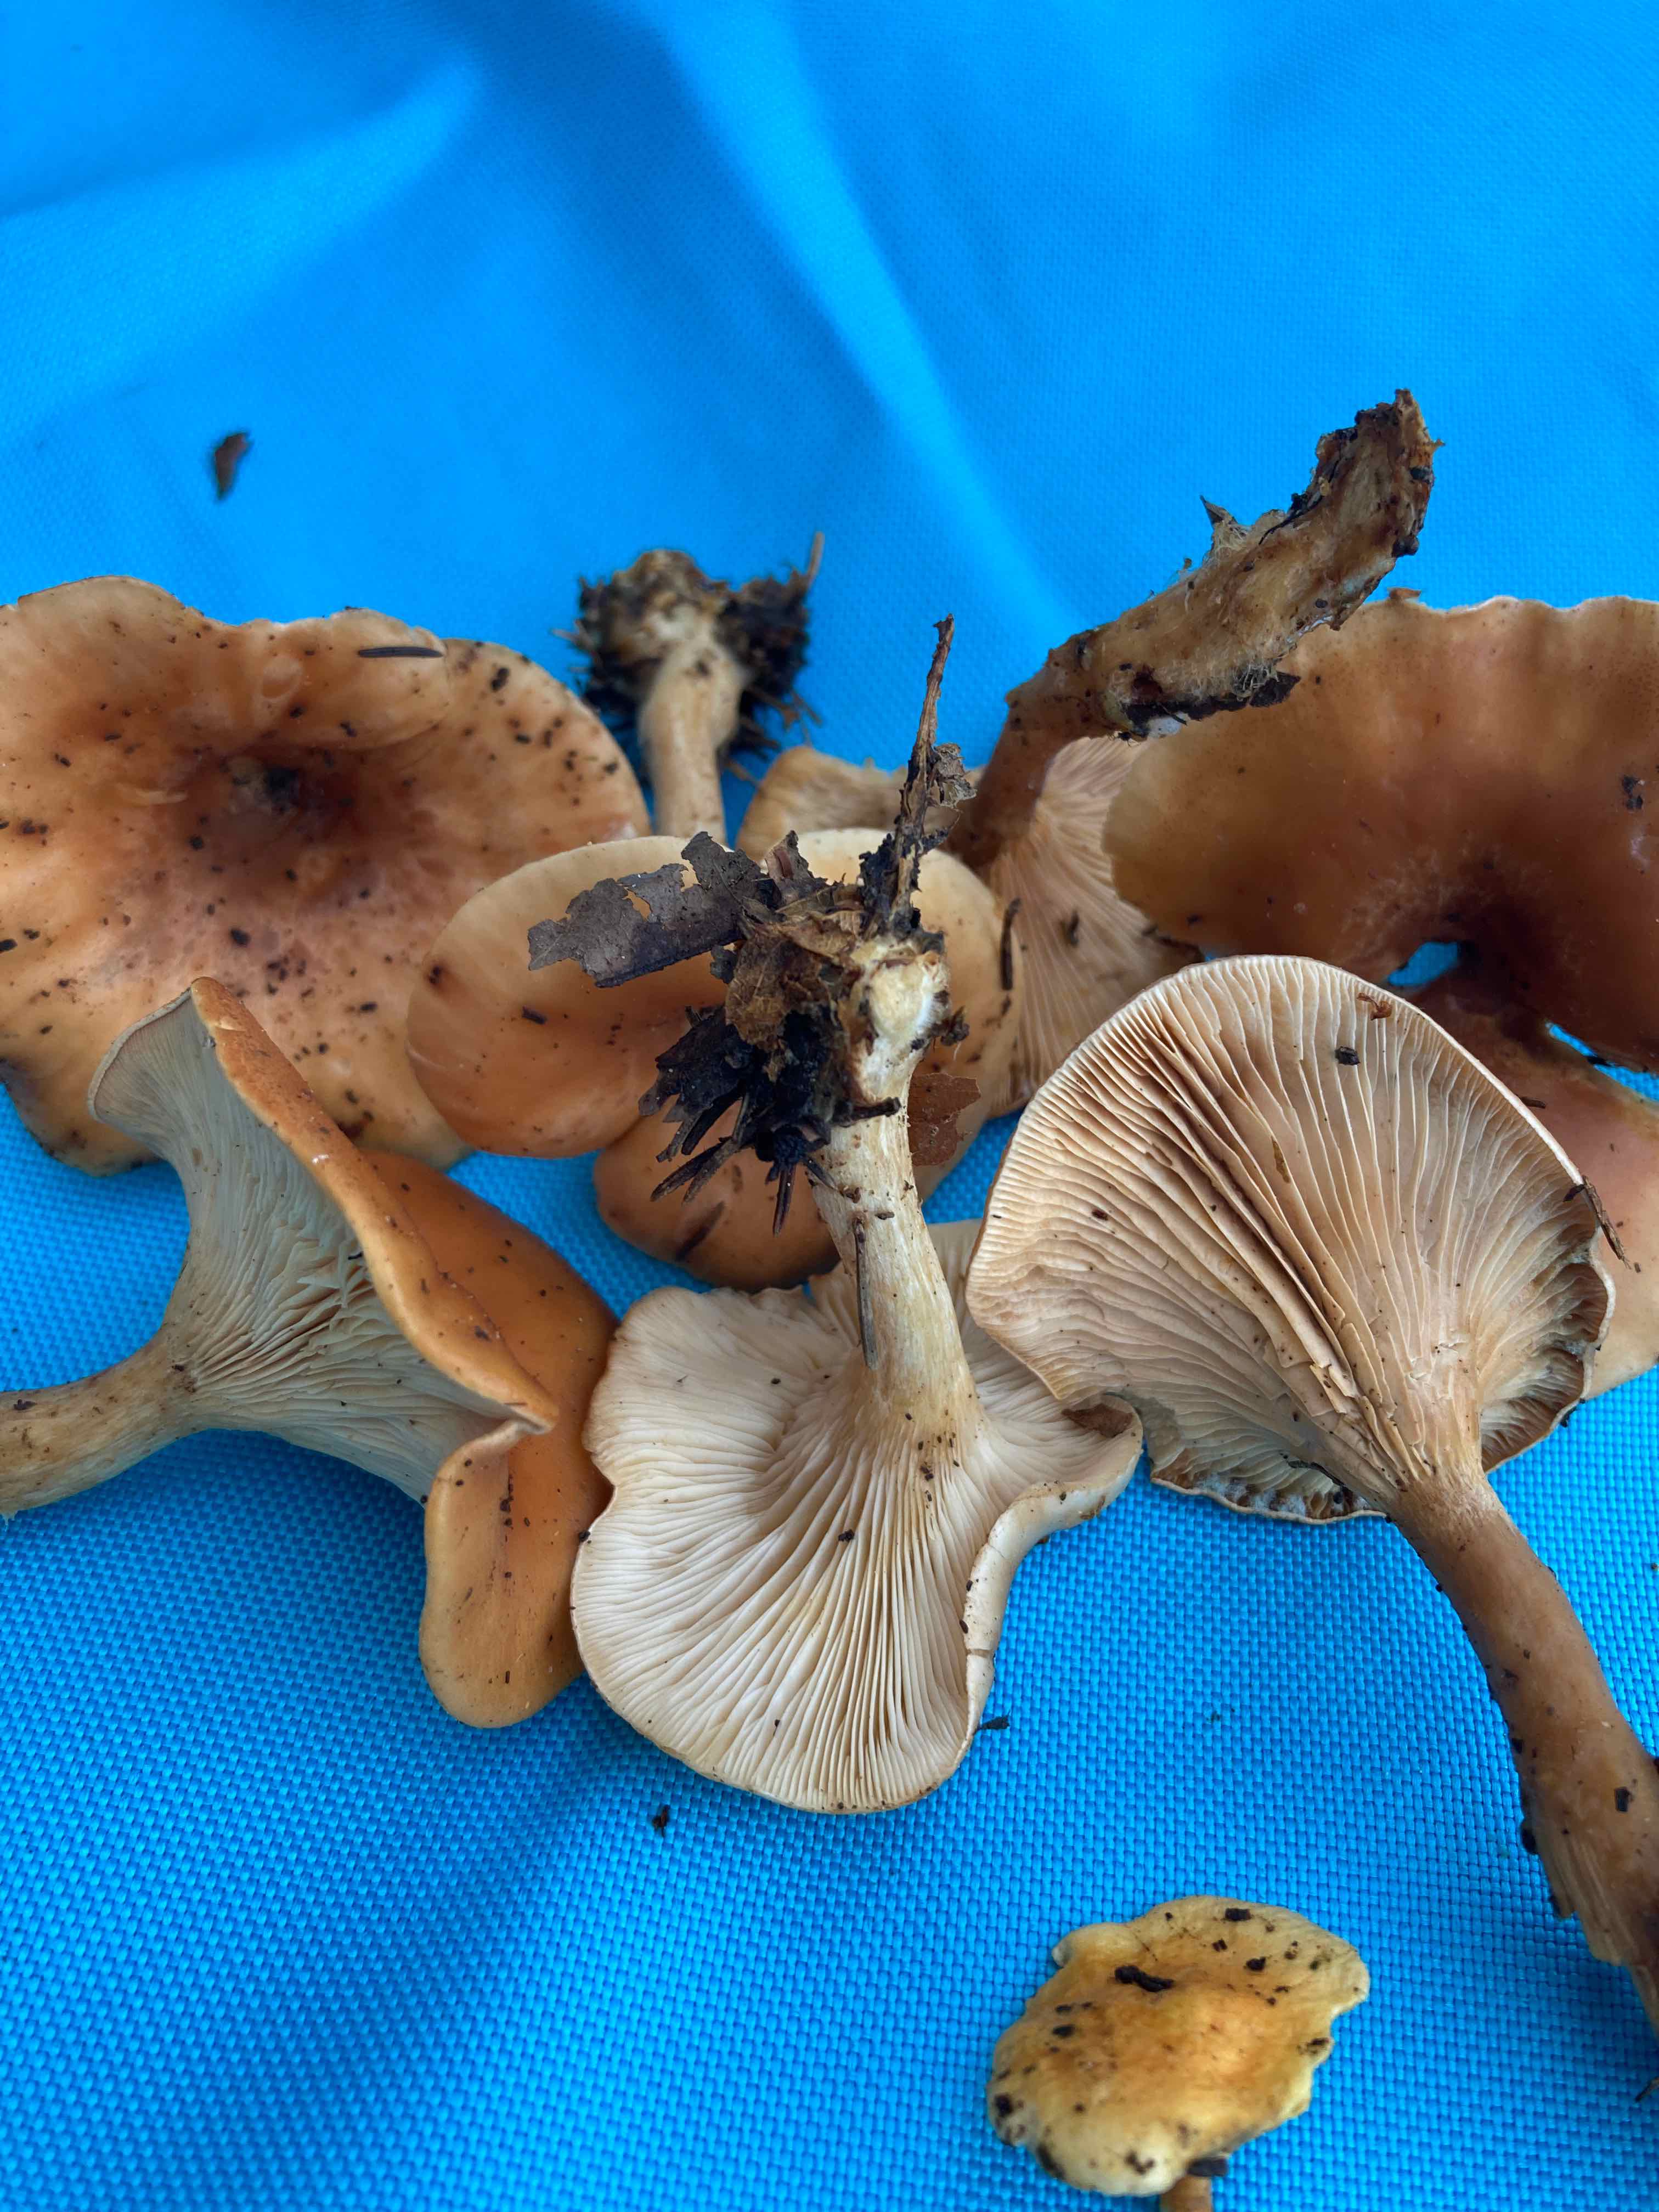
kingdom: Fungi
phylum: Basidiomycota
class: Agaricomycetes
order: Agaricales
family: Tricholomataceae
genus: Paralepista
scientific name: Paralepista flaccida
